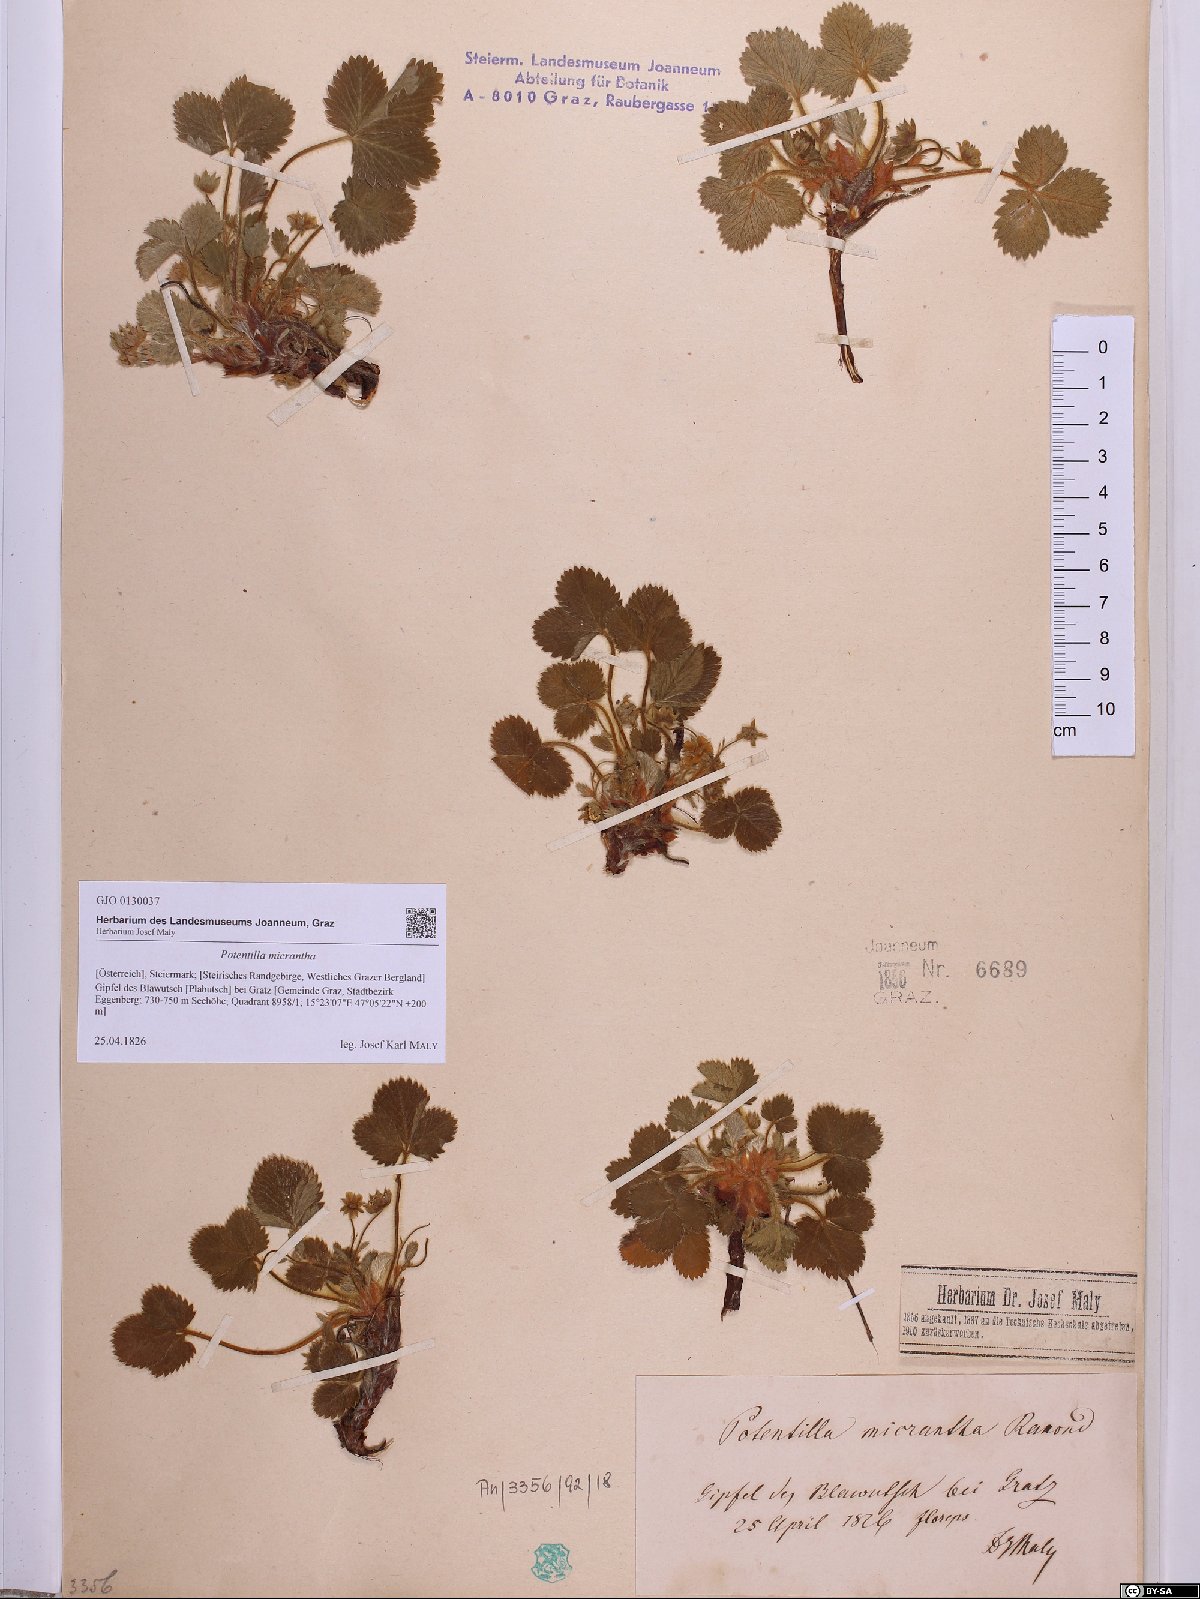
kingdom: Plantae
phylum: Tracheophyta
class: Magnoliopsida
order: Rosales
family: Rosaceae
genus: Potentilla
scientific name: Potentilla micrantha
